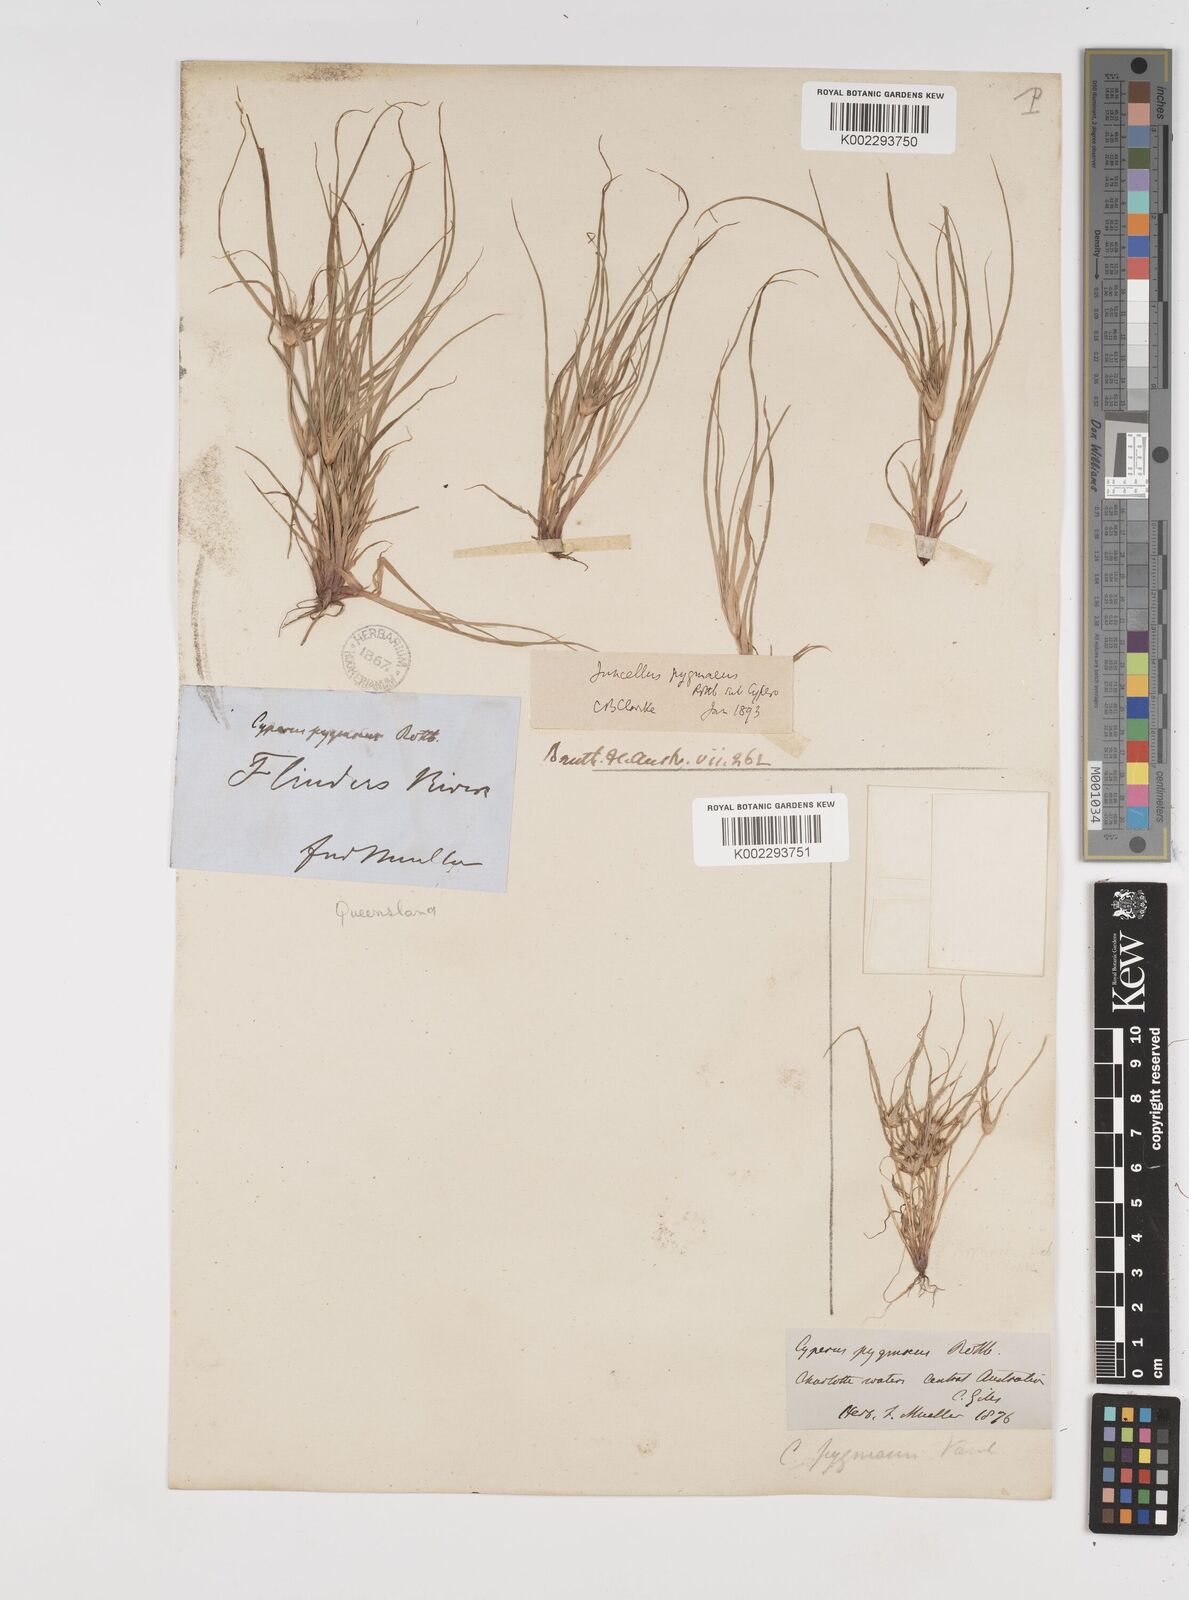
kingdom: Plantae
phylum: Tracheophyta
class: Liliopsida
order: Poales
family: Cyperaceae
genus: Cyperus
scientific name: Cyperus michelianus
